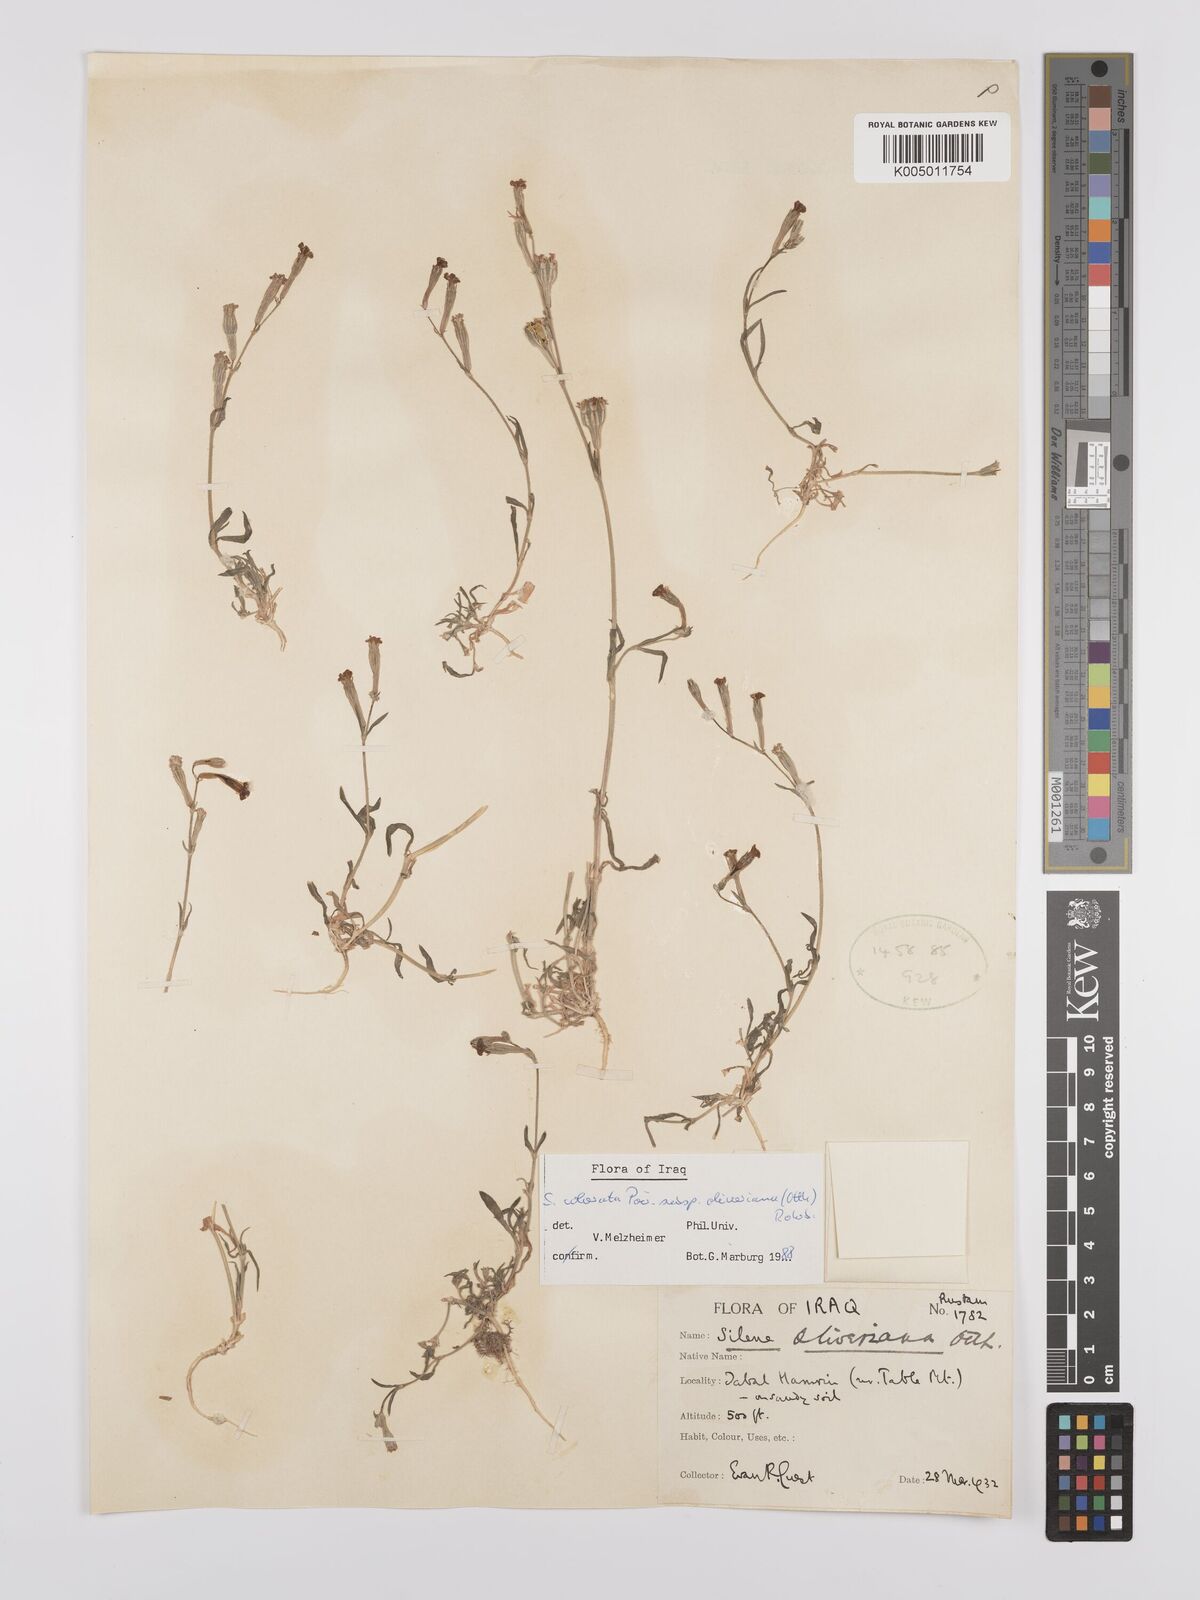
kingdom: Plantae
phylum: Tracheophyta
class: Magnoliopsida
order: Caryophyllales
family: Caryophyllaceae
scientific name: Caryophyllaceae
